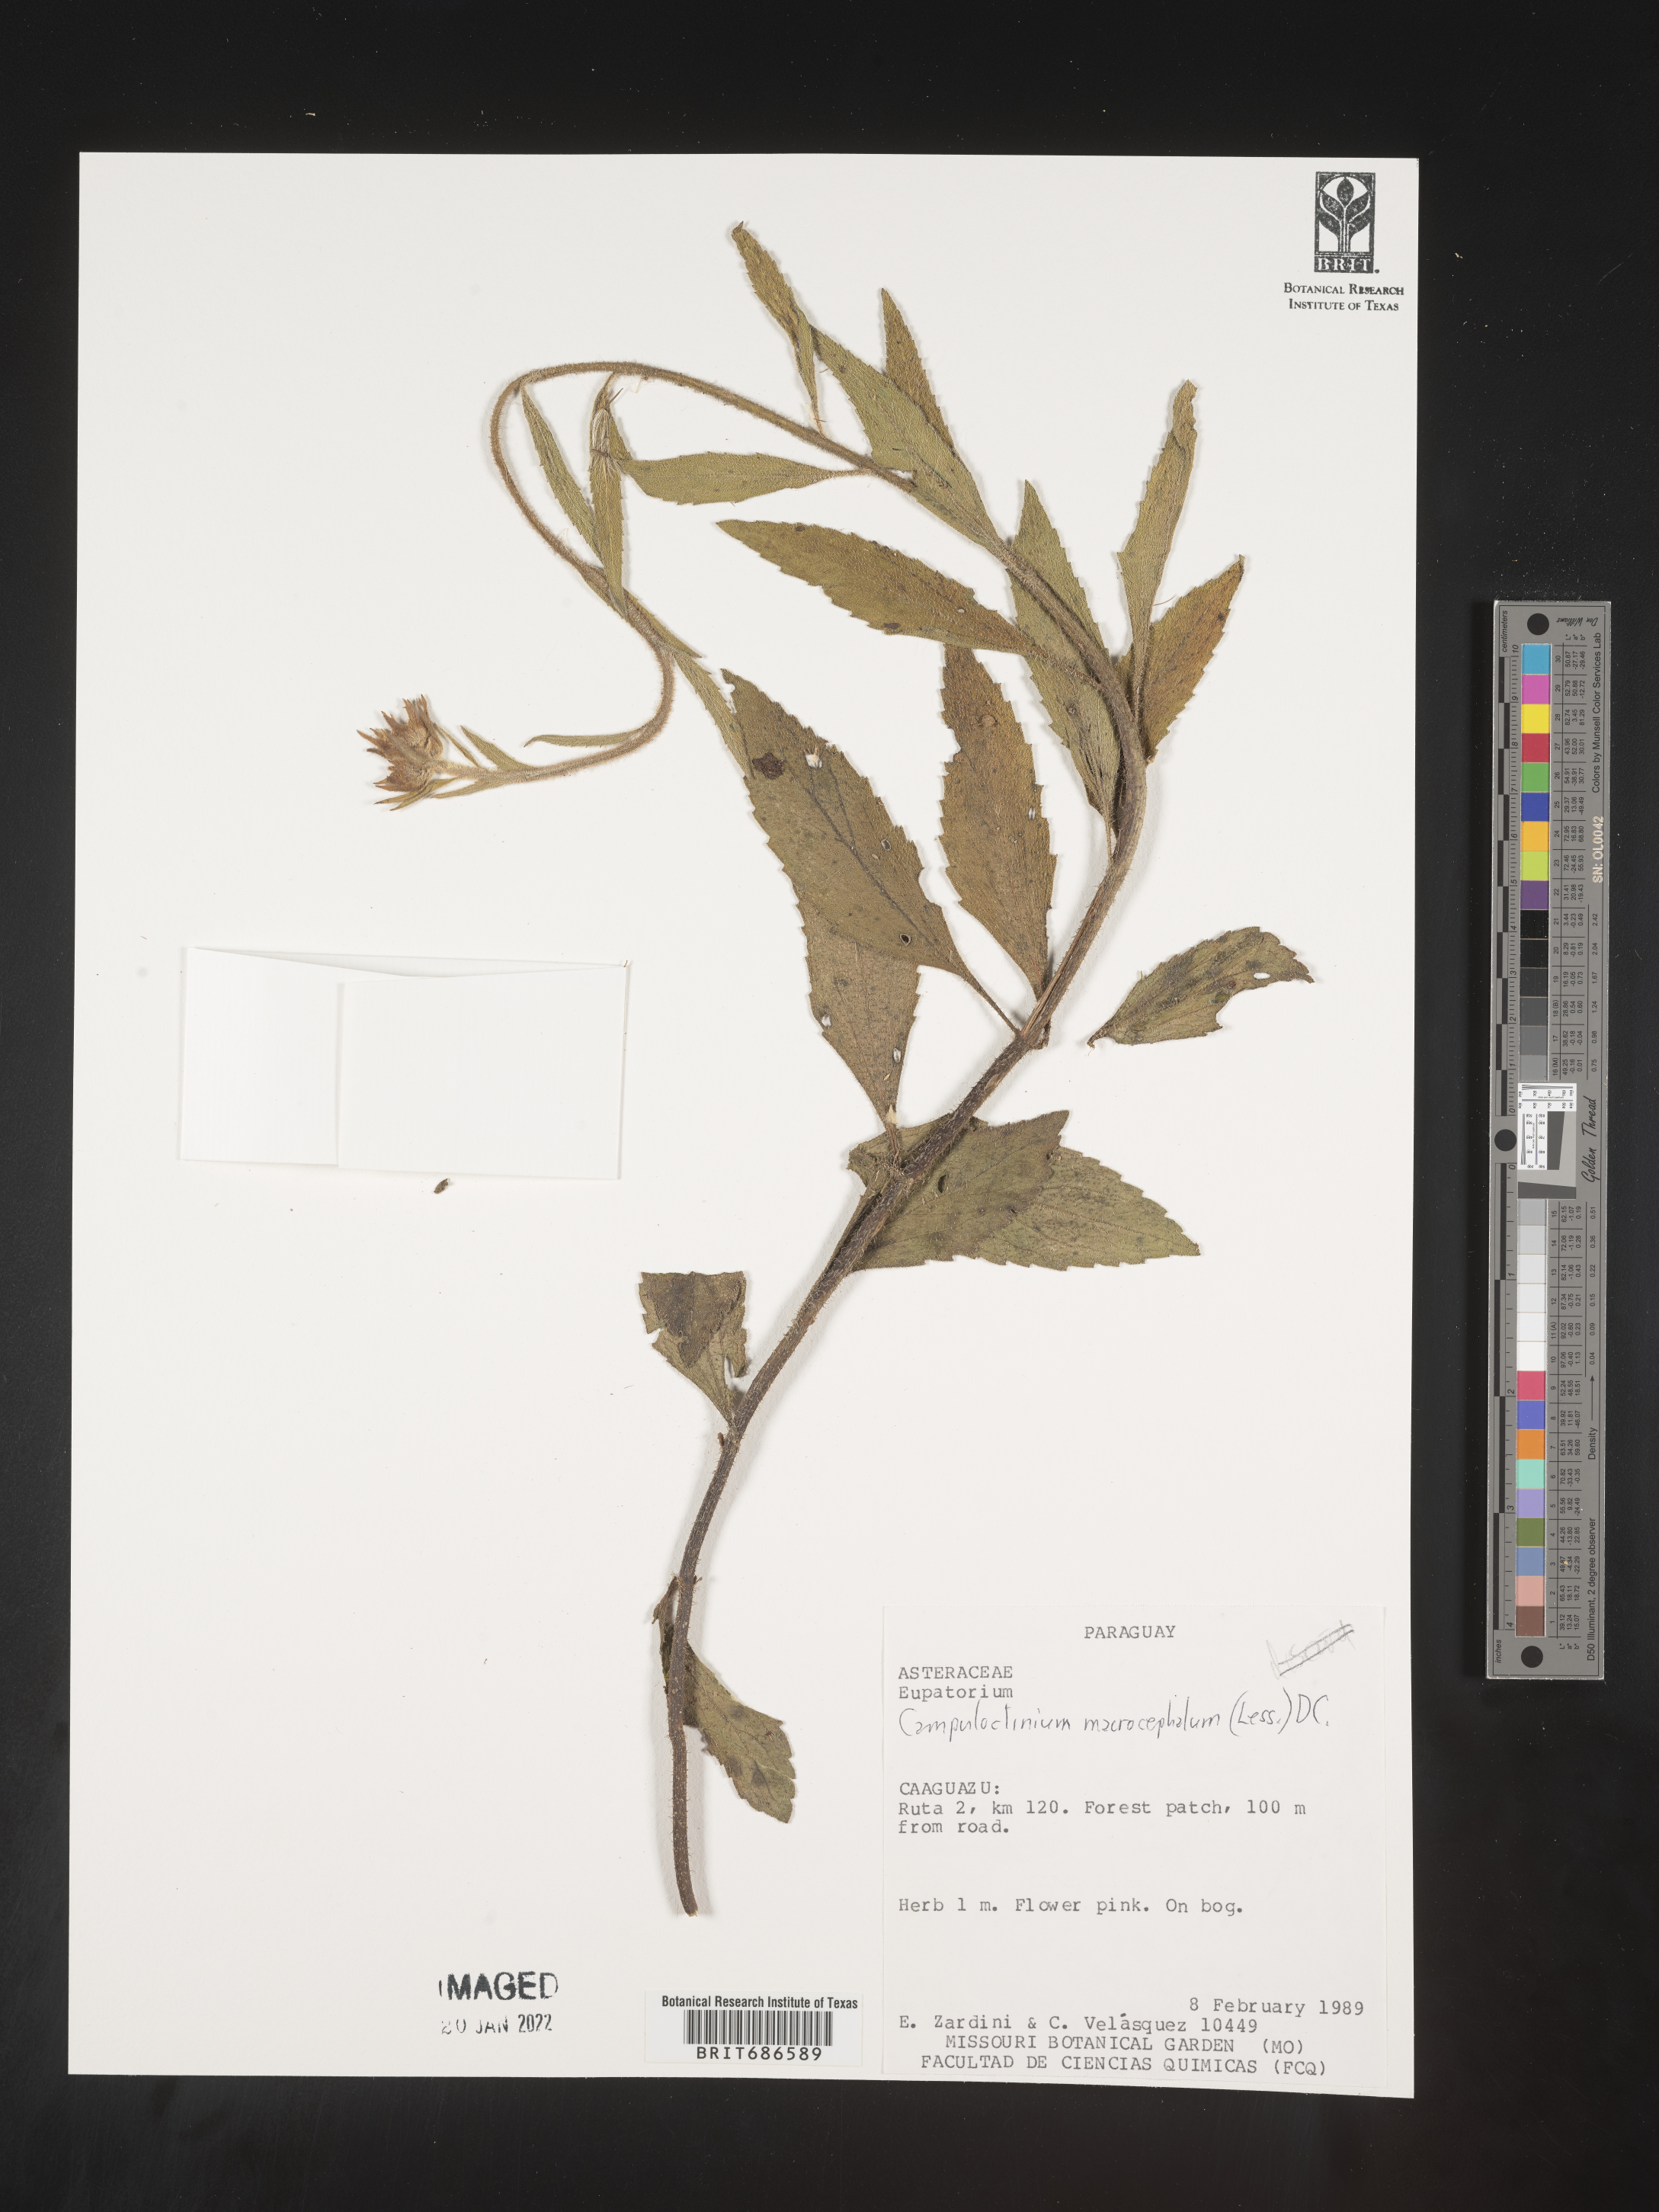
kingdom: Plantae
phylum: Tracheophyta
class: Magnoliopsida
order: Asterales
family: Asteraceae
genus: Campuloclinium
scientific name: Campuloclinium
